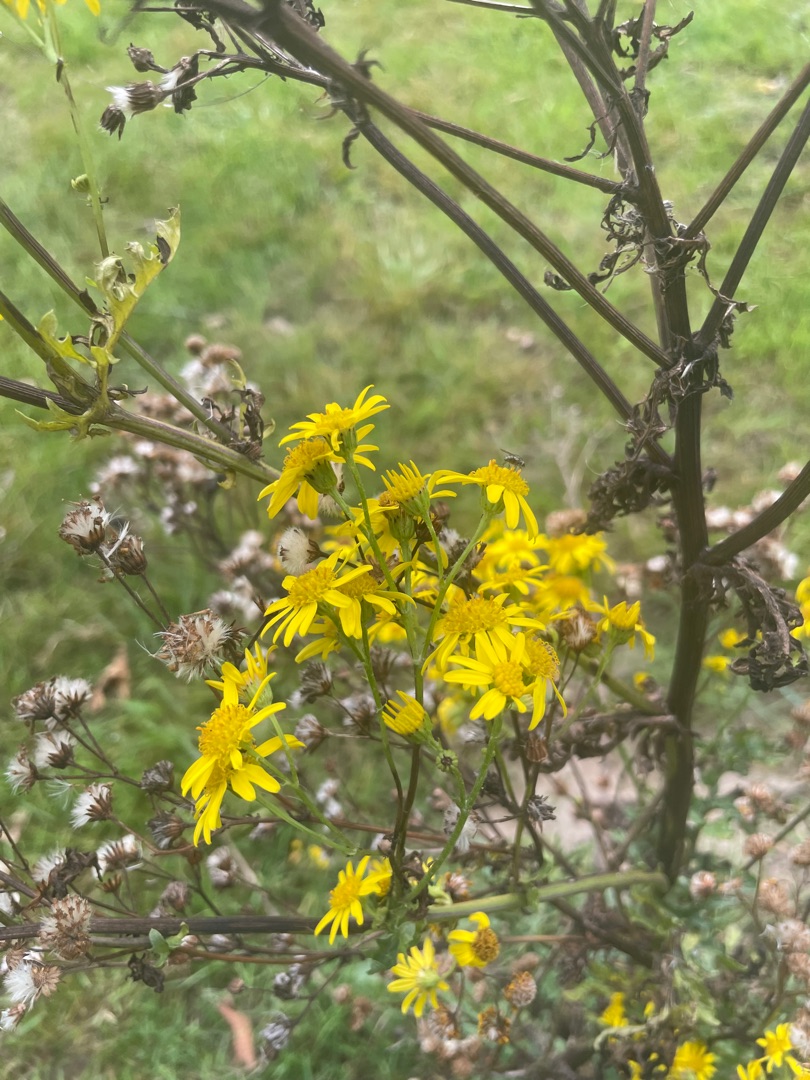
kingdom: Plantae
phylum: Tracheophyta
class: Magnoliopsida
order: Asterales
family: Asteraceae
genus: Jacobaea
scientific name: Jacobaea vulgaris
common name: Eng-brandbæger
